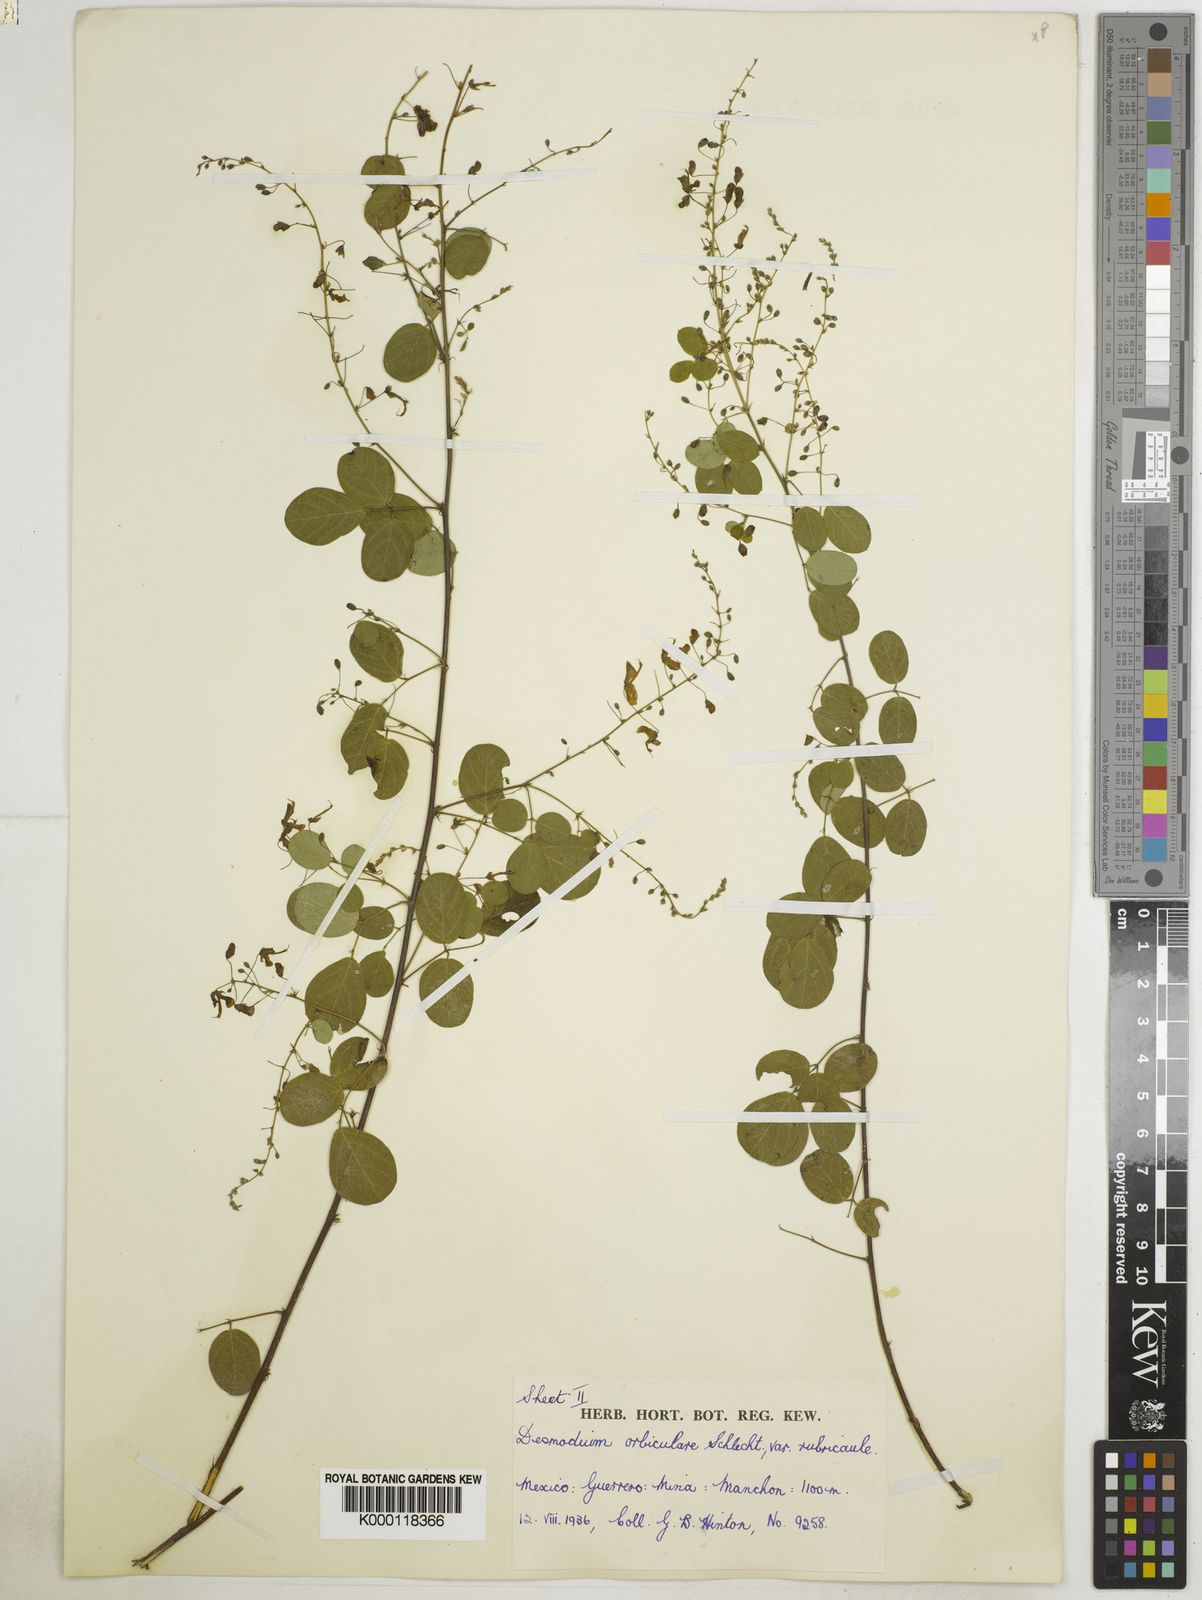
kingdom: Plantae
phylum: Tracheophyta
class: Magnoliopsida
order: Fabales
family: Fabaceae
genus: Desmodium
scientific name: Desmodium orbiculare
